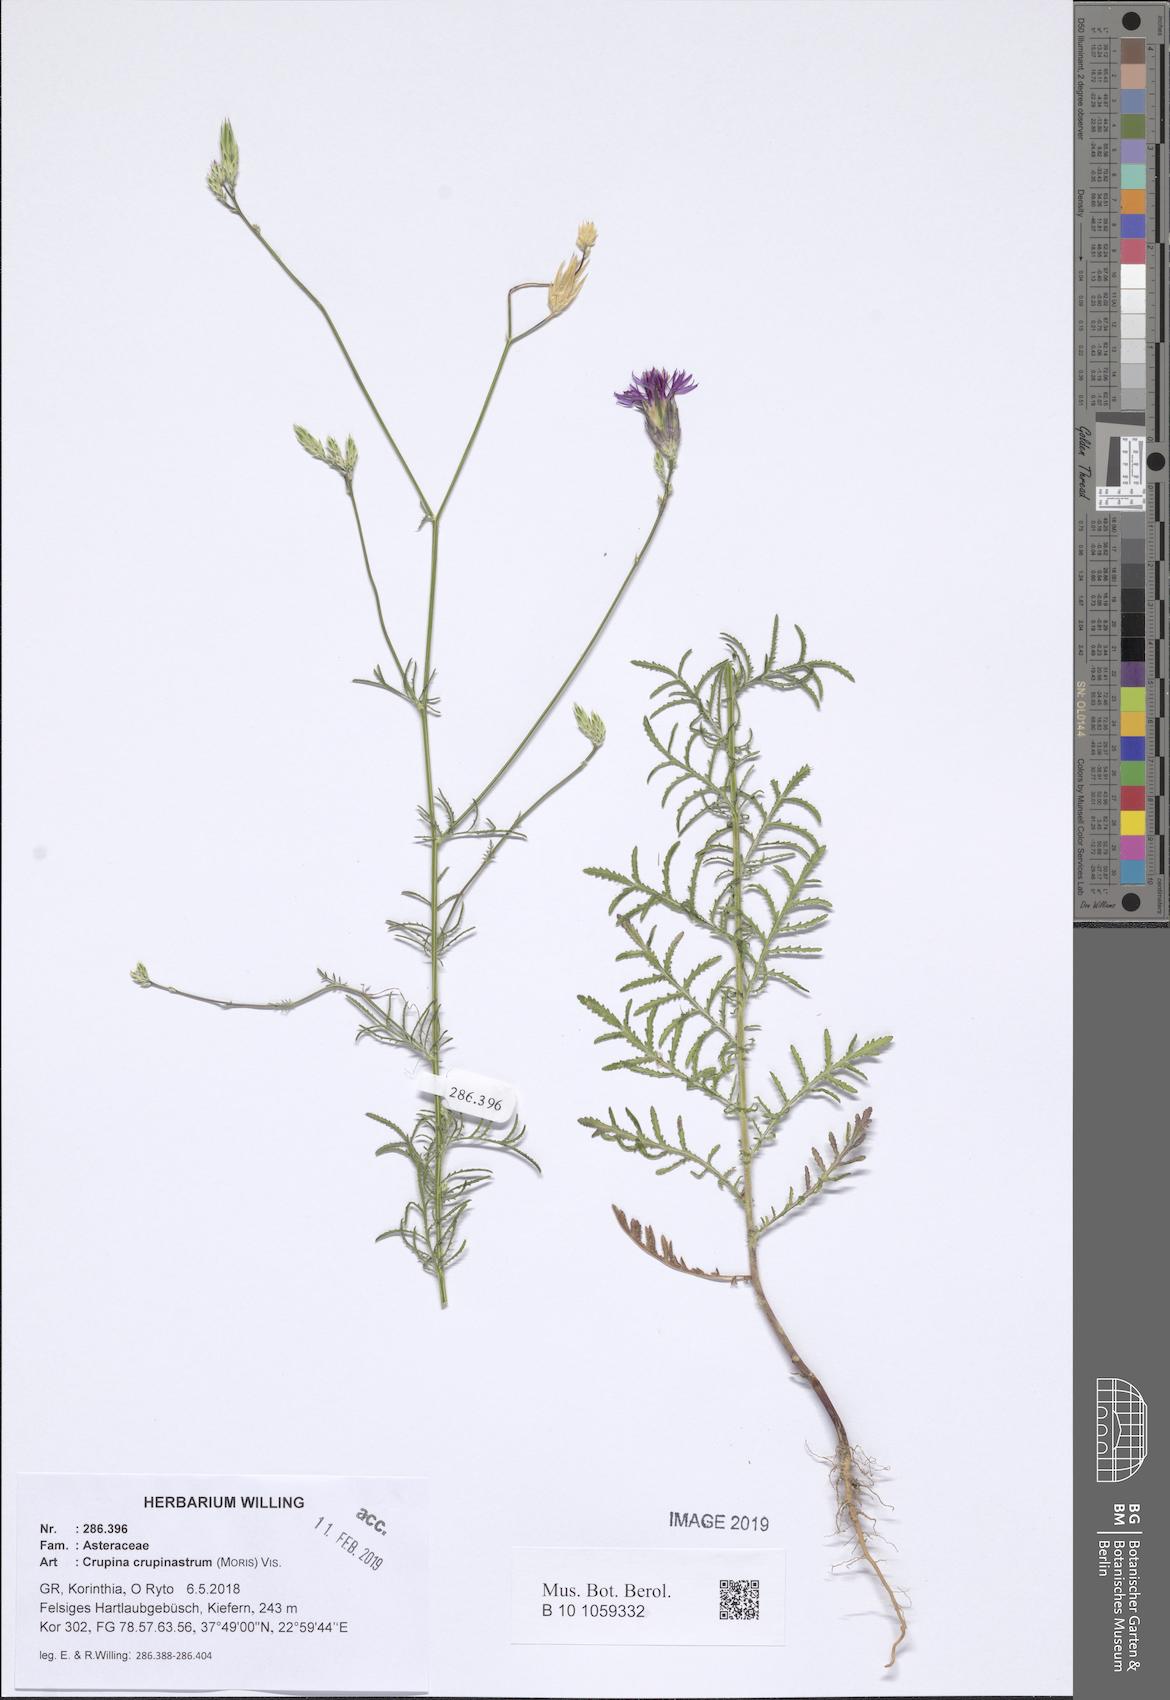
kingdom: Plantae
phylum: Tracheophyta
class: Magnoliopsida
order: Asterales
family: Asteraceae
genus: Crupina
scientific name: Crupina crupinastrum
